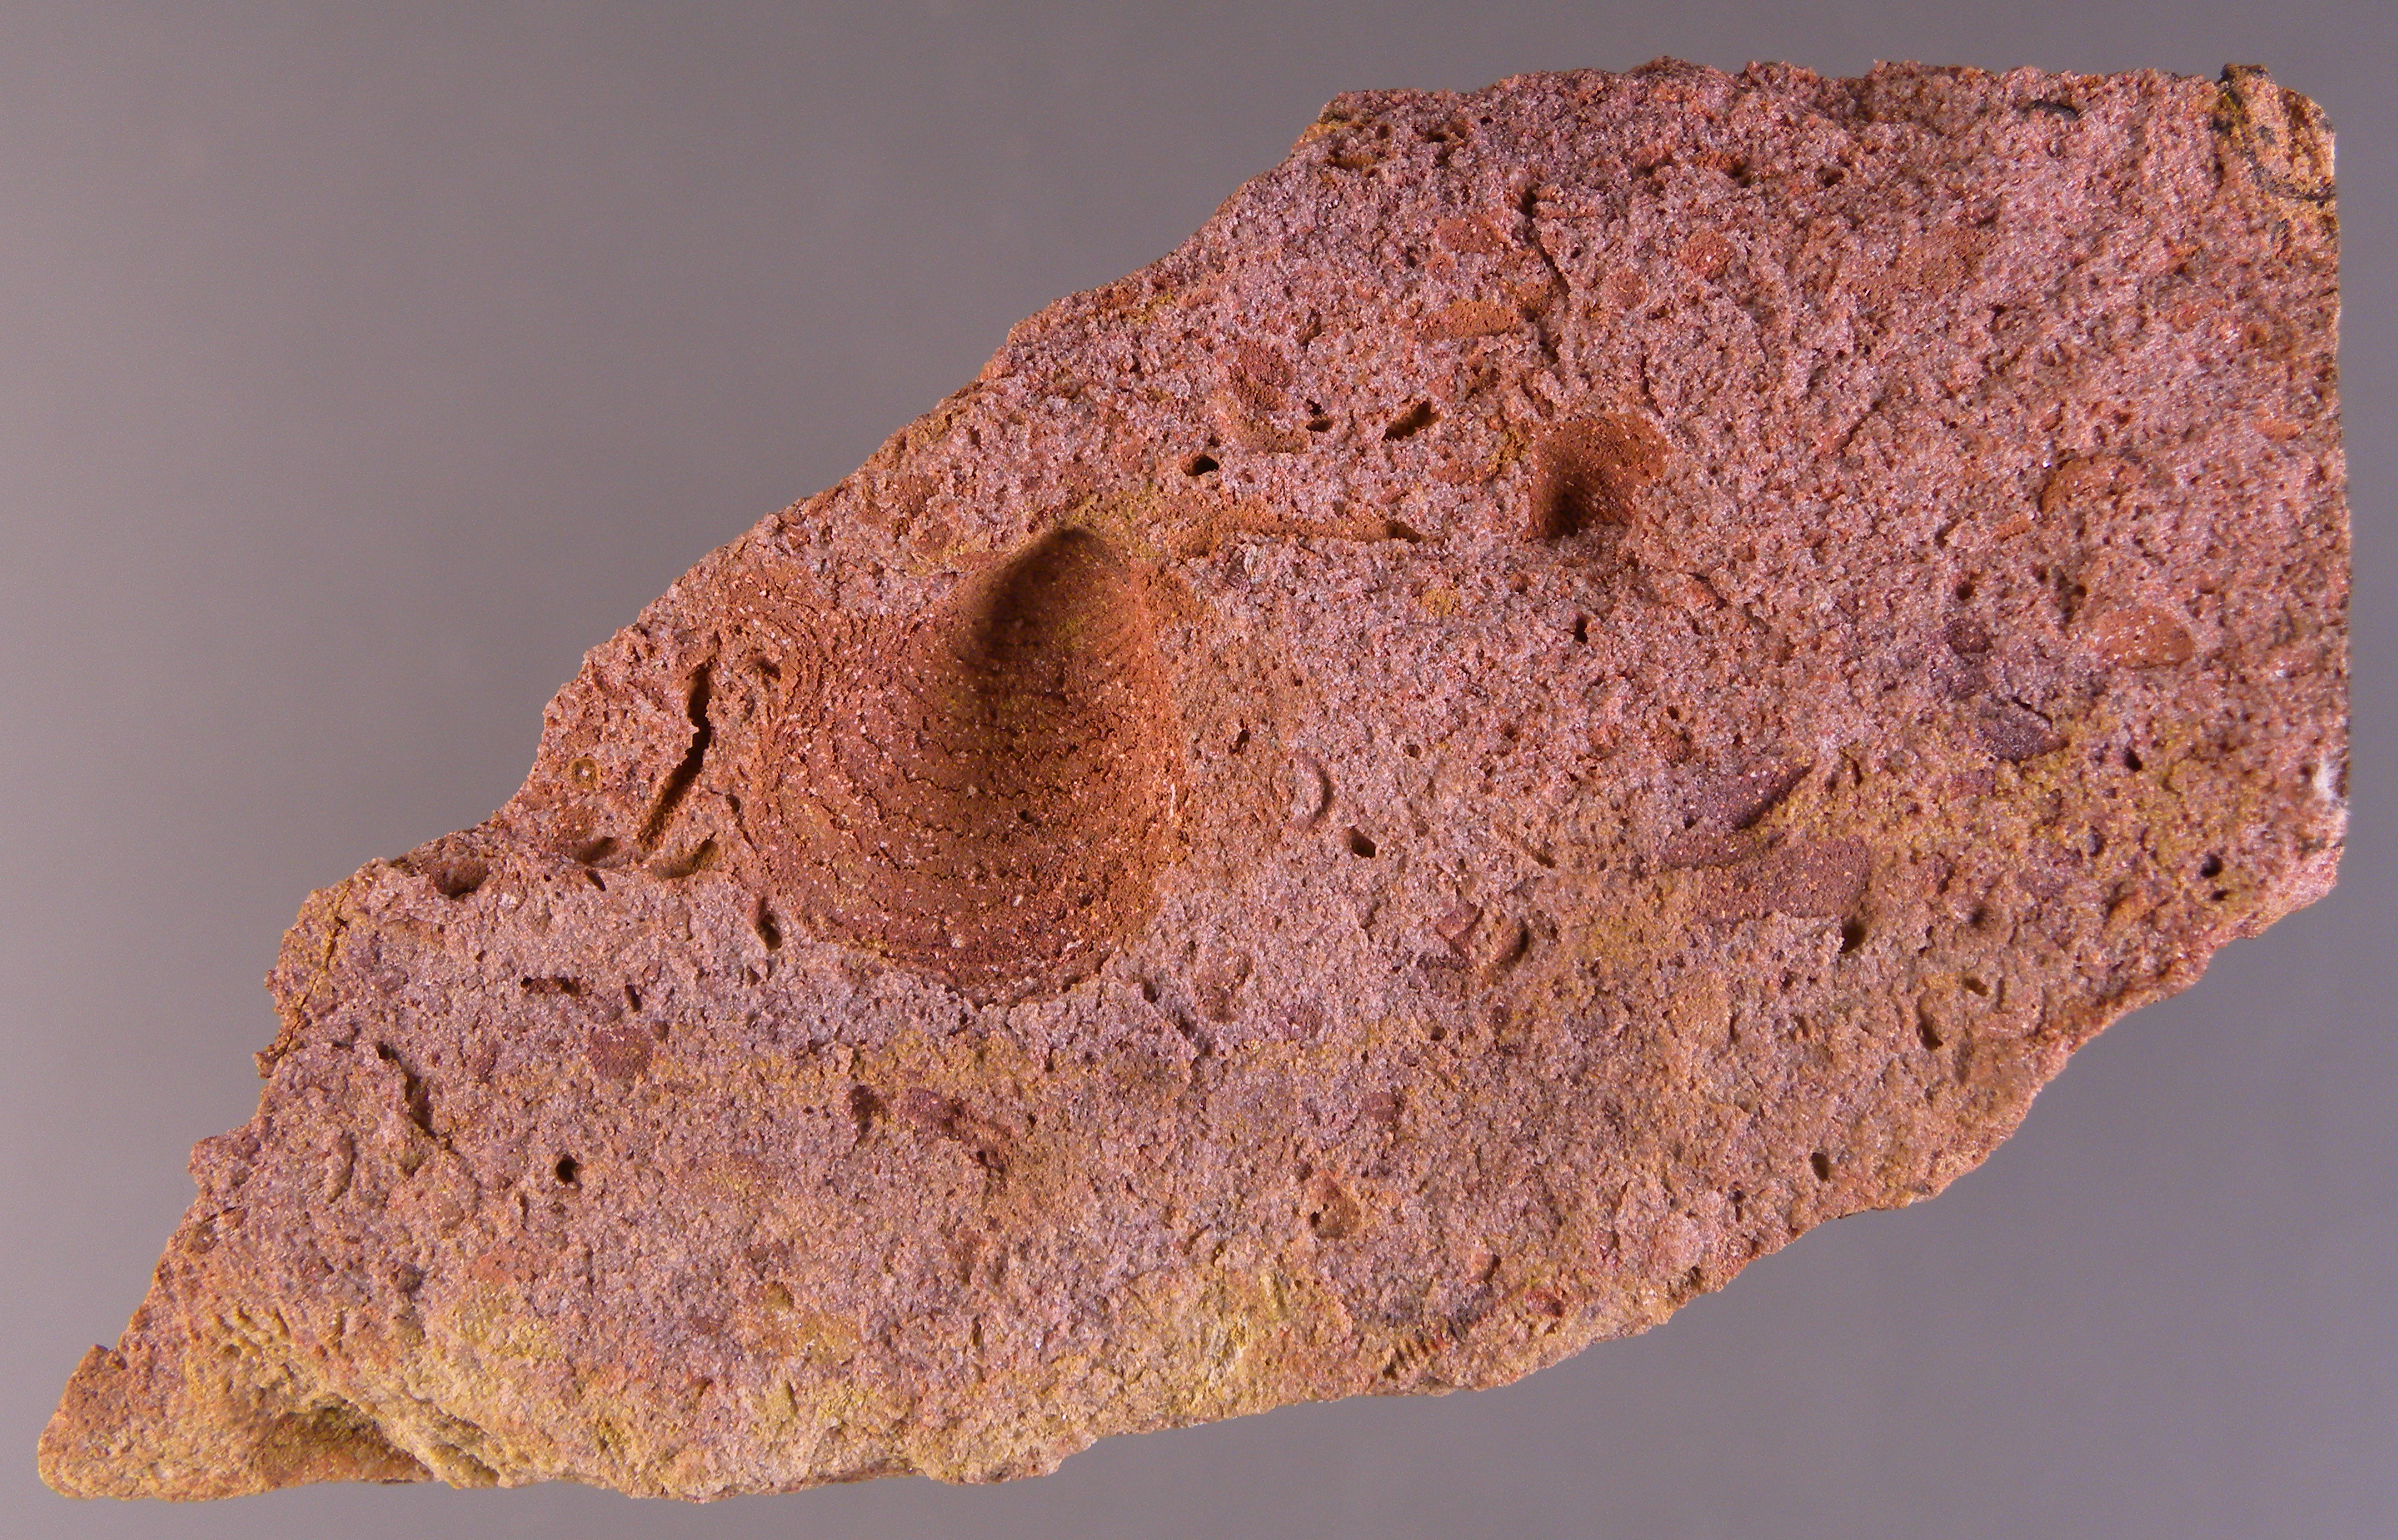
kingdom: Animalia
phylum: Mollusca
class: Bivalvia
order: Ostreida
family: Pterineidae
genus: Leptodesma
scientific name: Leptodesma
